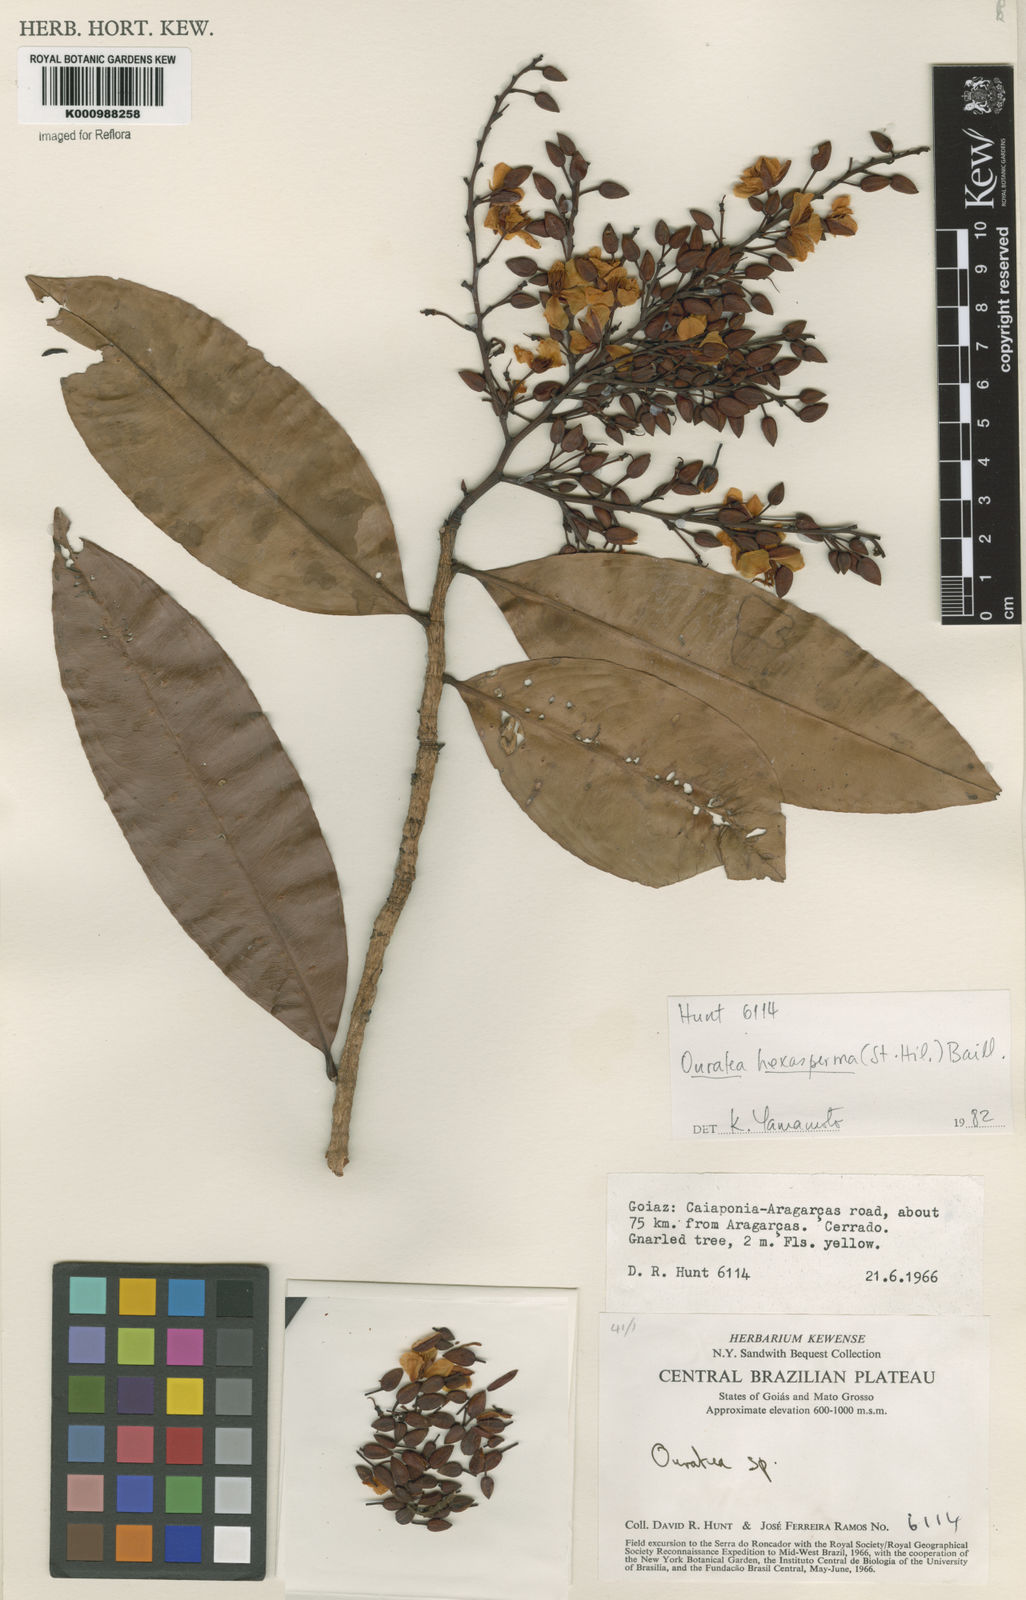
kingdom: Plantae
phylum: Tracheophyta
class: Magnoliopsida
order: Malpighiales
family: Ochnaceae
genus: Ouratea
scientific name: Ouratea hexasperma
